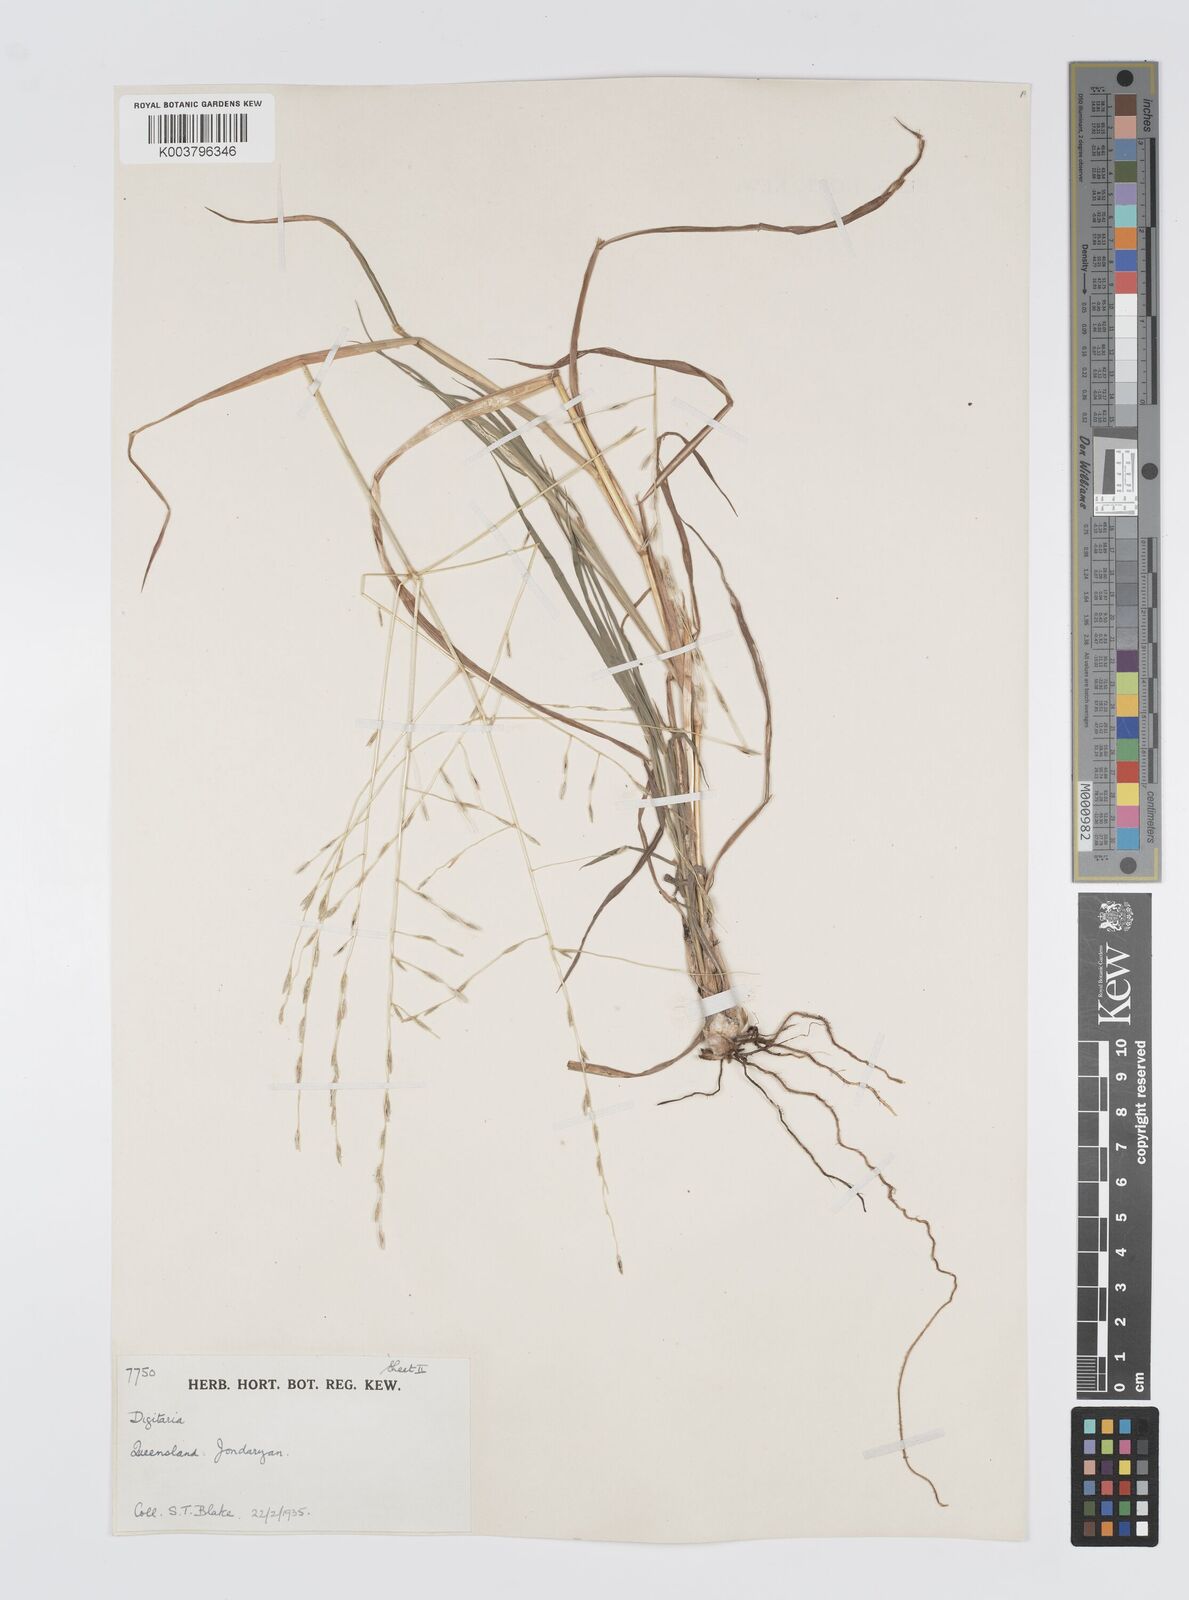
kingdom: Plantae
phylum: Tracheophyta
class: Liliopsida
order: Poales
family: Poaceae
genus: Digitaria
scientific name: Digitaria divaricatissima
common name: Crabgrass
